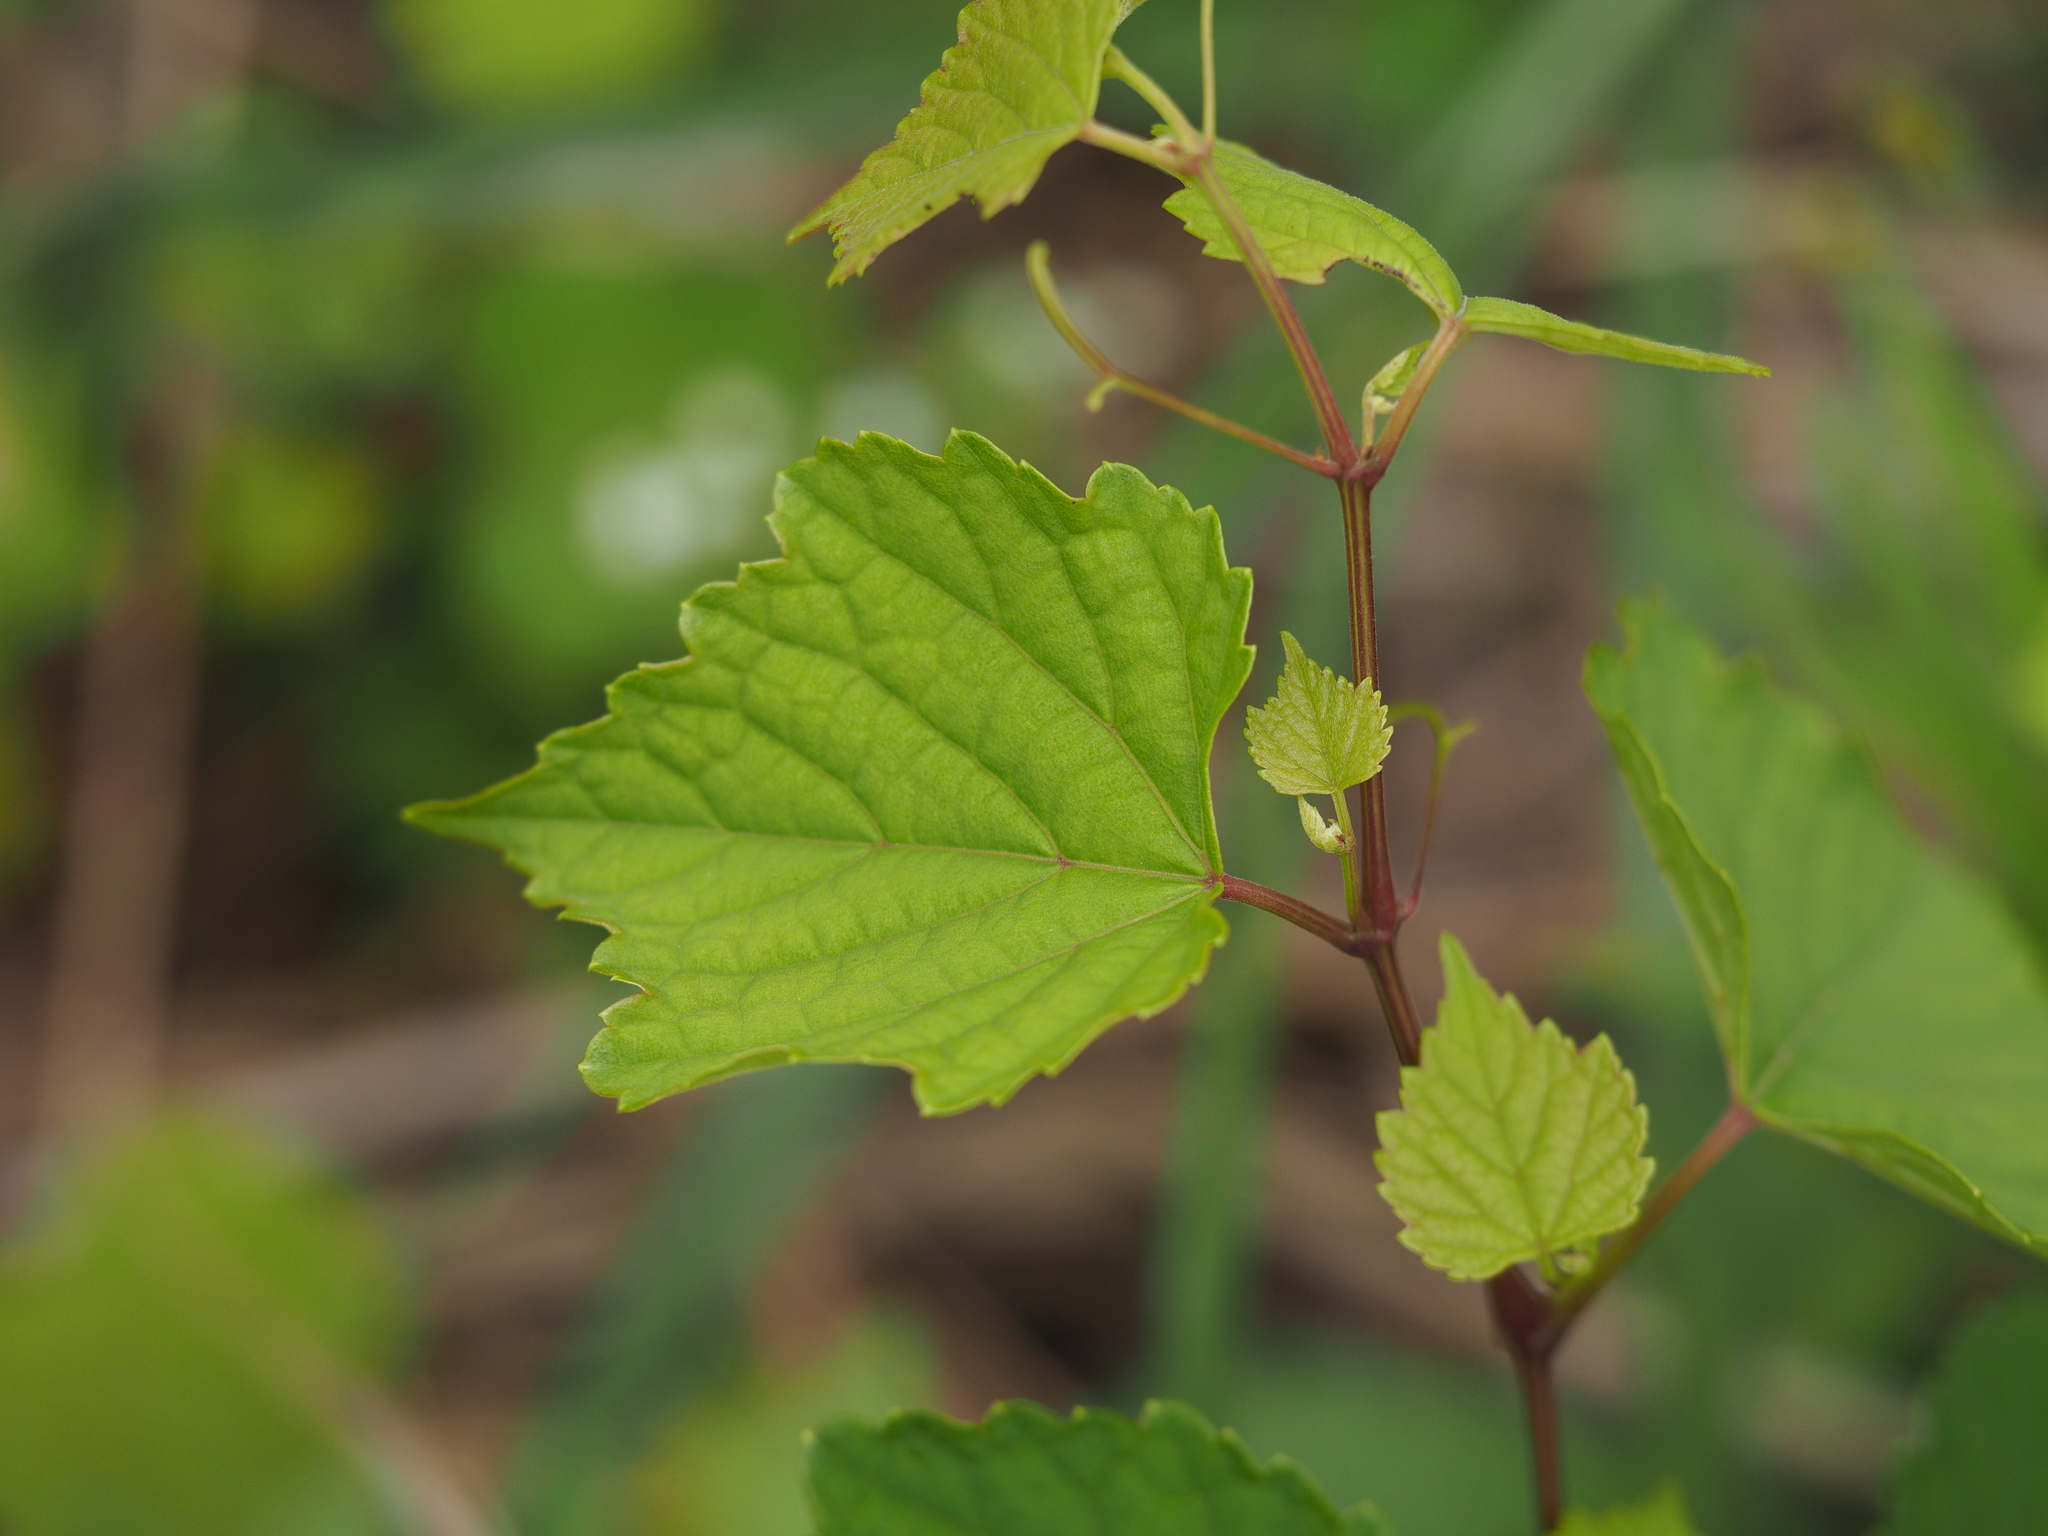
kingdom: Plantae
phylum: Tracheophyta
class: Magnoliopsida
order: Vitales
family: Vitaceae
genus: Ampelopsis
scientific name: Ampelopsis glandulosa
